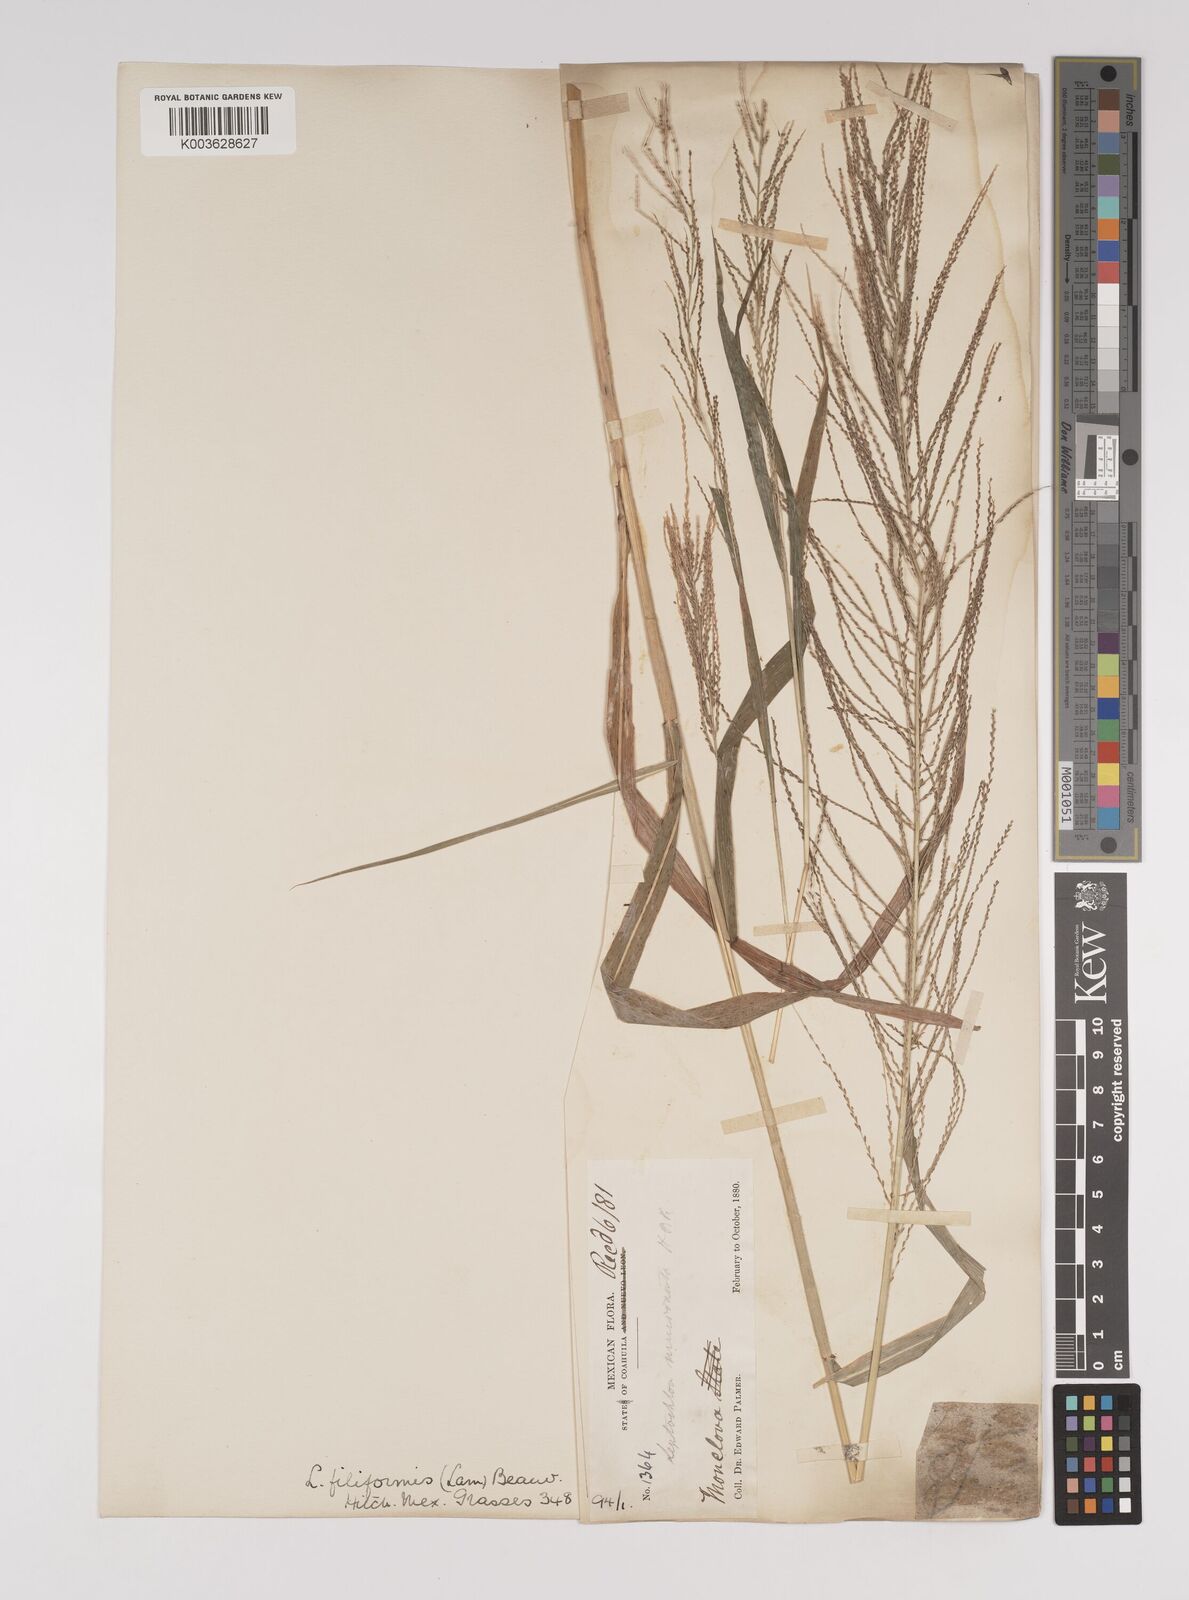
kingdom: Plantae
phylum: Tracheophyta
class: Liliopsida
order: Poales
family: Poaceae
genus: Leptochloa
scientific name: Leptochloa panicea
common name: Mucronate sprangletop
